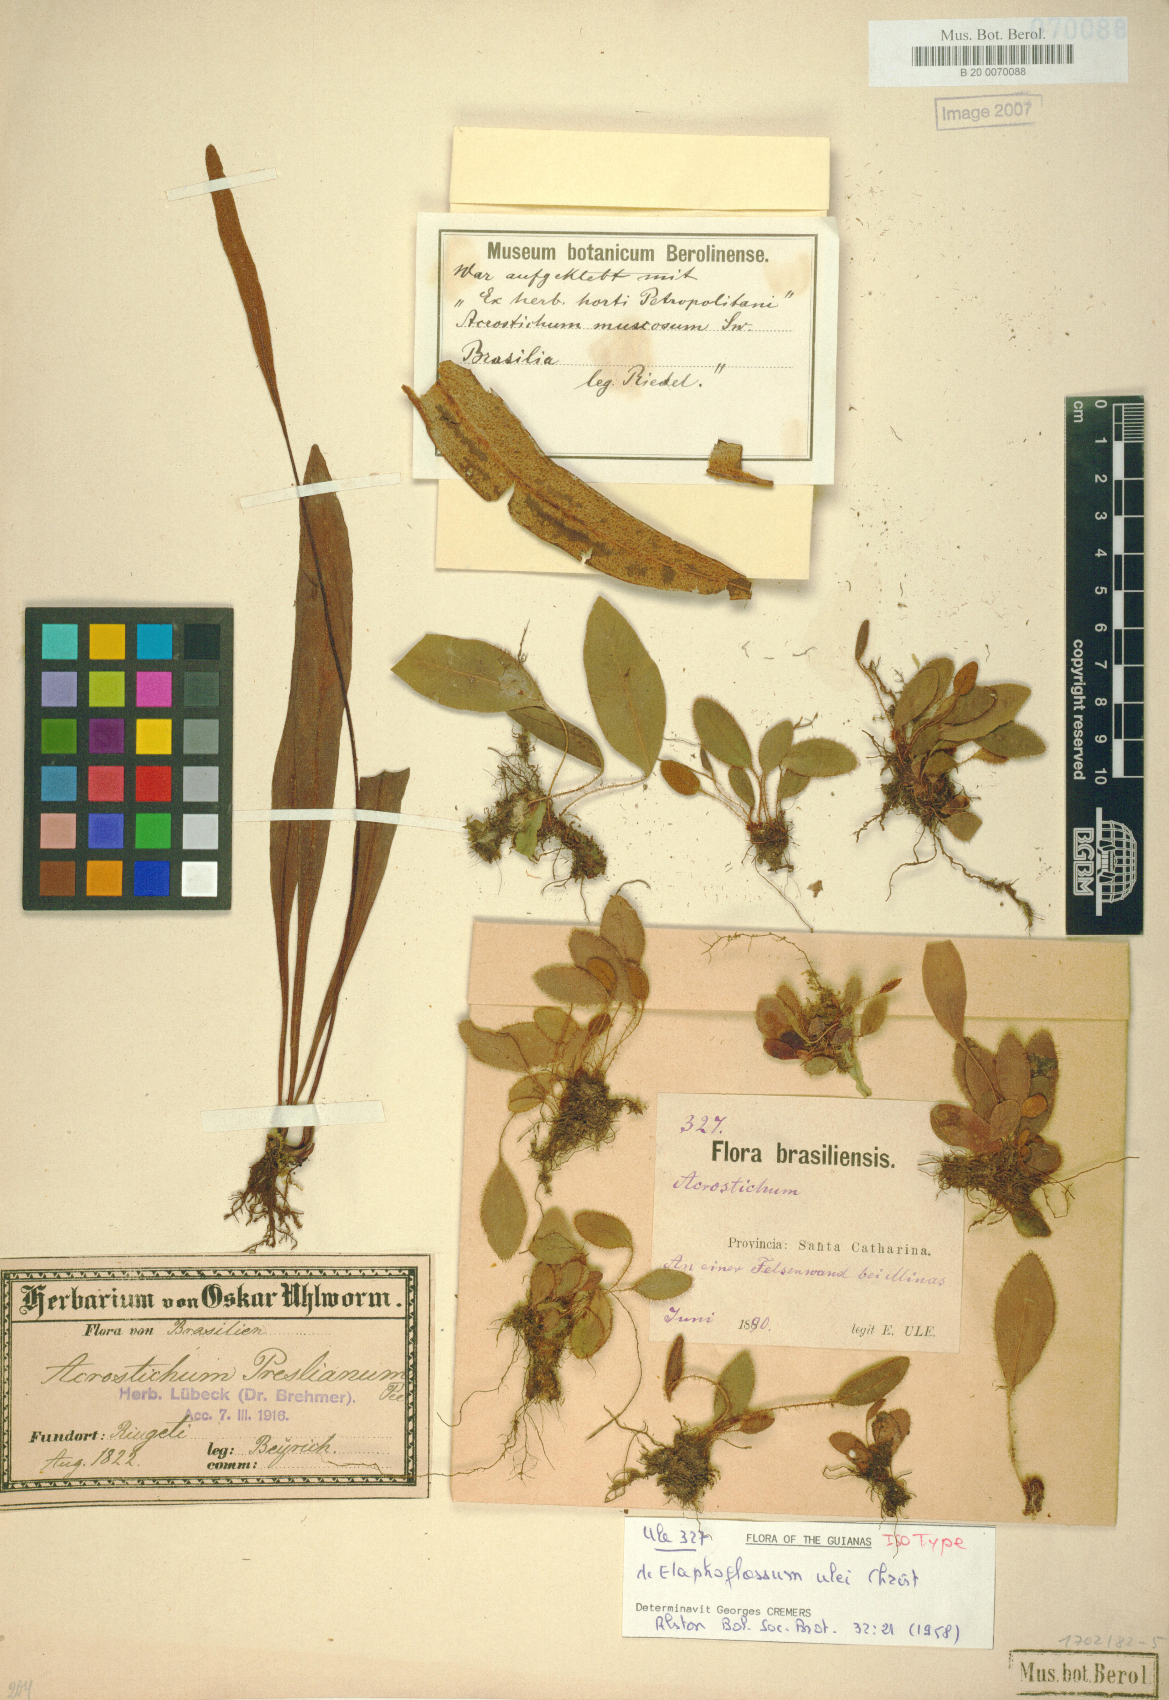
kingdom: Plantae
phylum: Tracheophyta
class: Polypodiopsida
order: Polypodiales
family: Dryopteridaceae
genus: Elaphoglossum
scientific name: Elaphoglossum ulei
